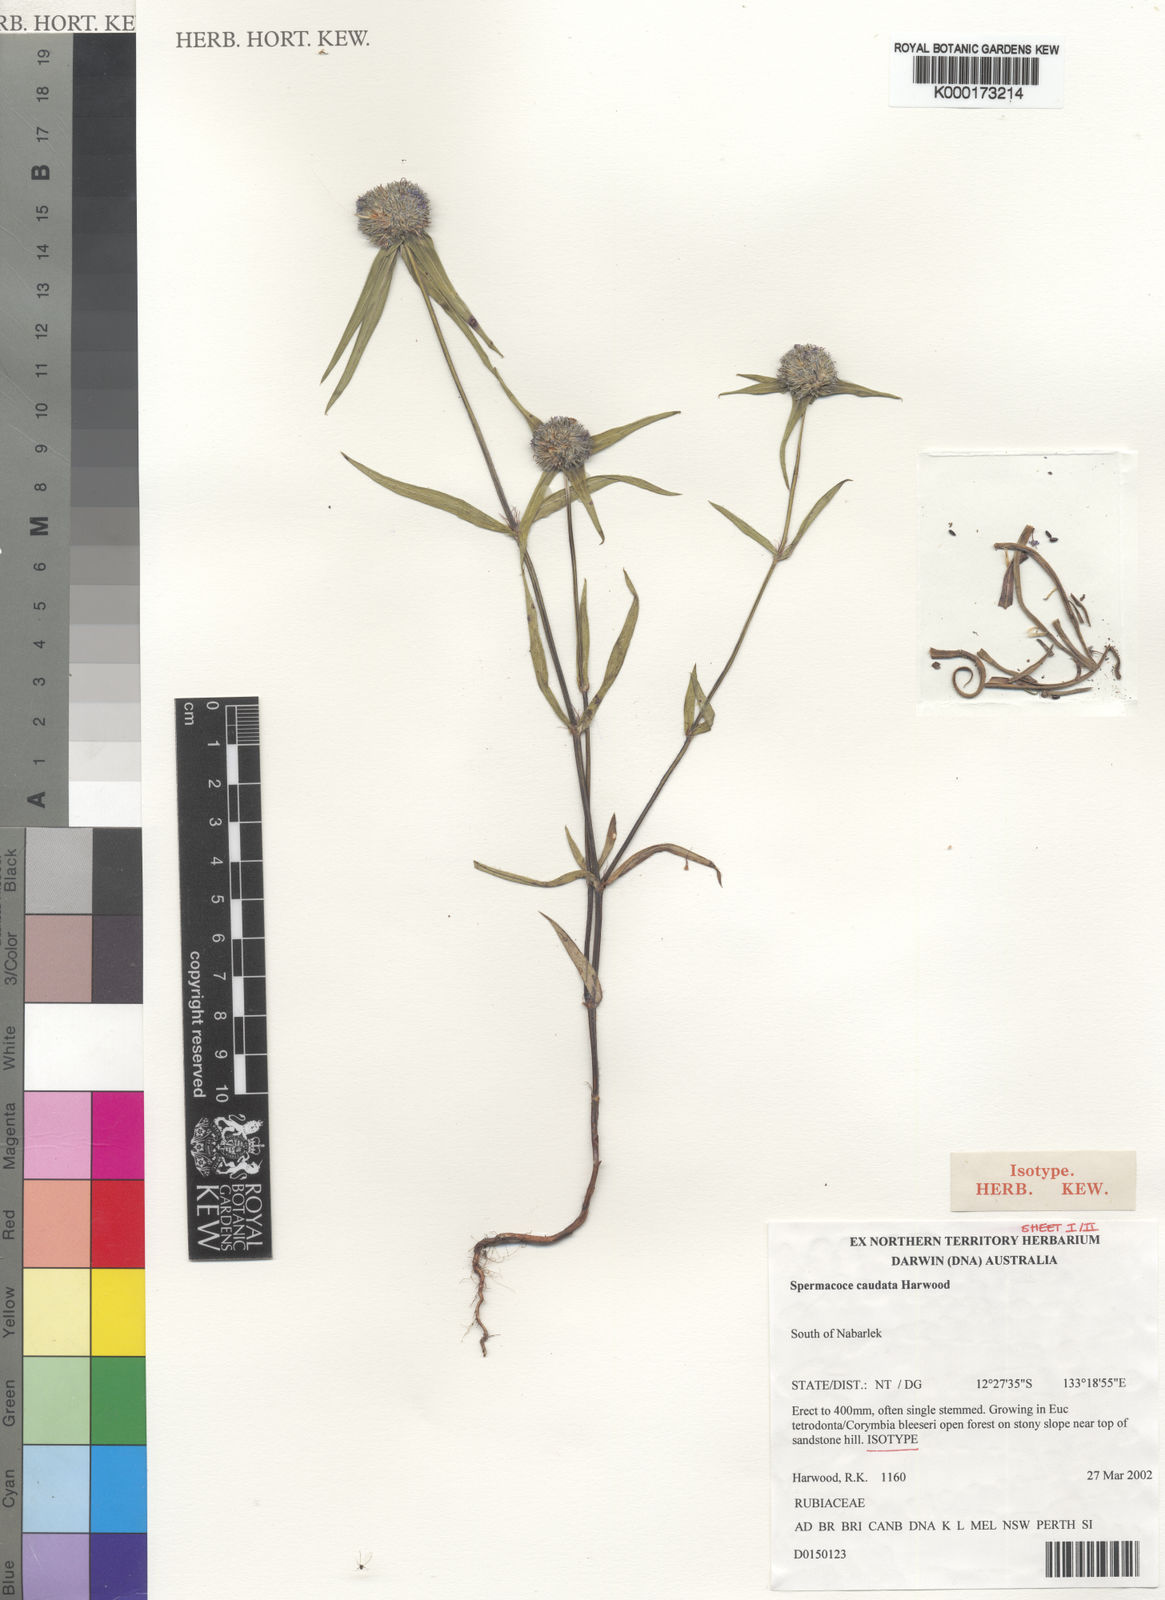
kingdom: Plantae
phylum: Tracheophyta
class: Magnoliopsida
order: Gentianales
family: Rubiaceae
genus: Spermacoce
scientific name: Spermacoce caudata
